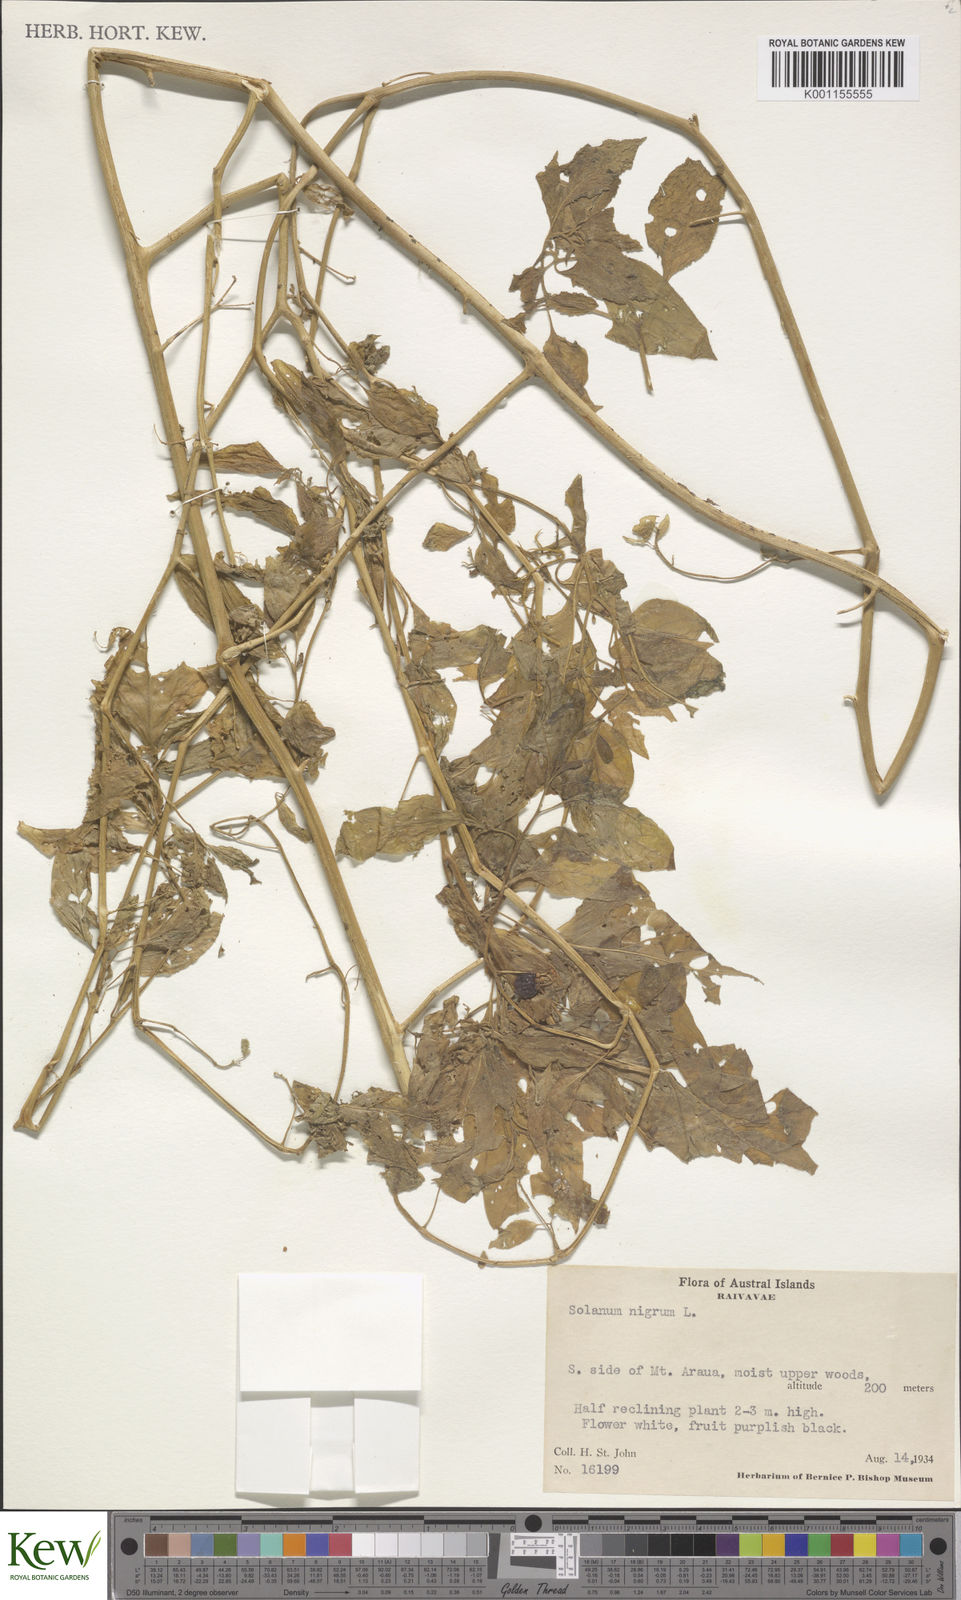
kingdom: Plantae
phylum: Tracheophyta
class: Magnoliopsida
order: Solanales
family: Solanaceae
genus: Solanum
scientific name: Solanum americanum
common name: American black nightshade
